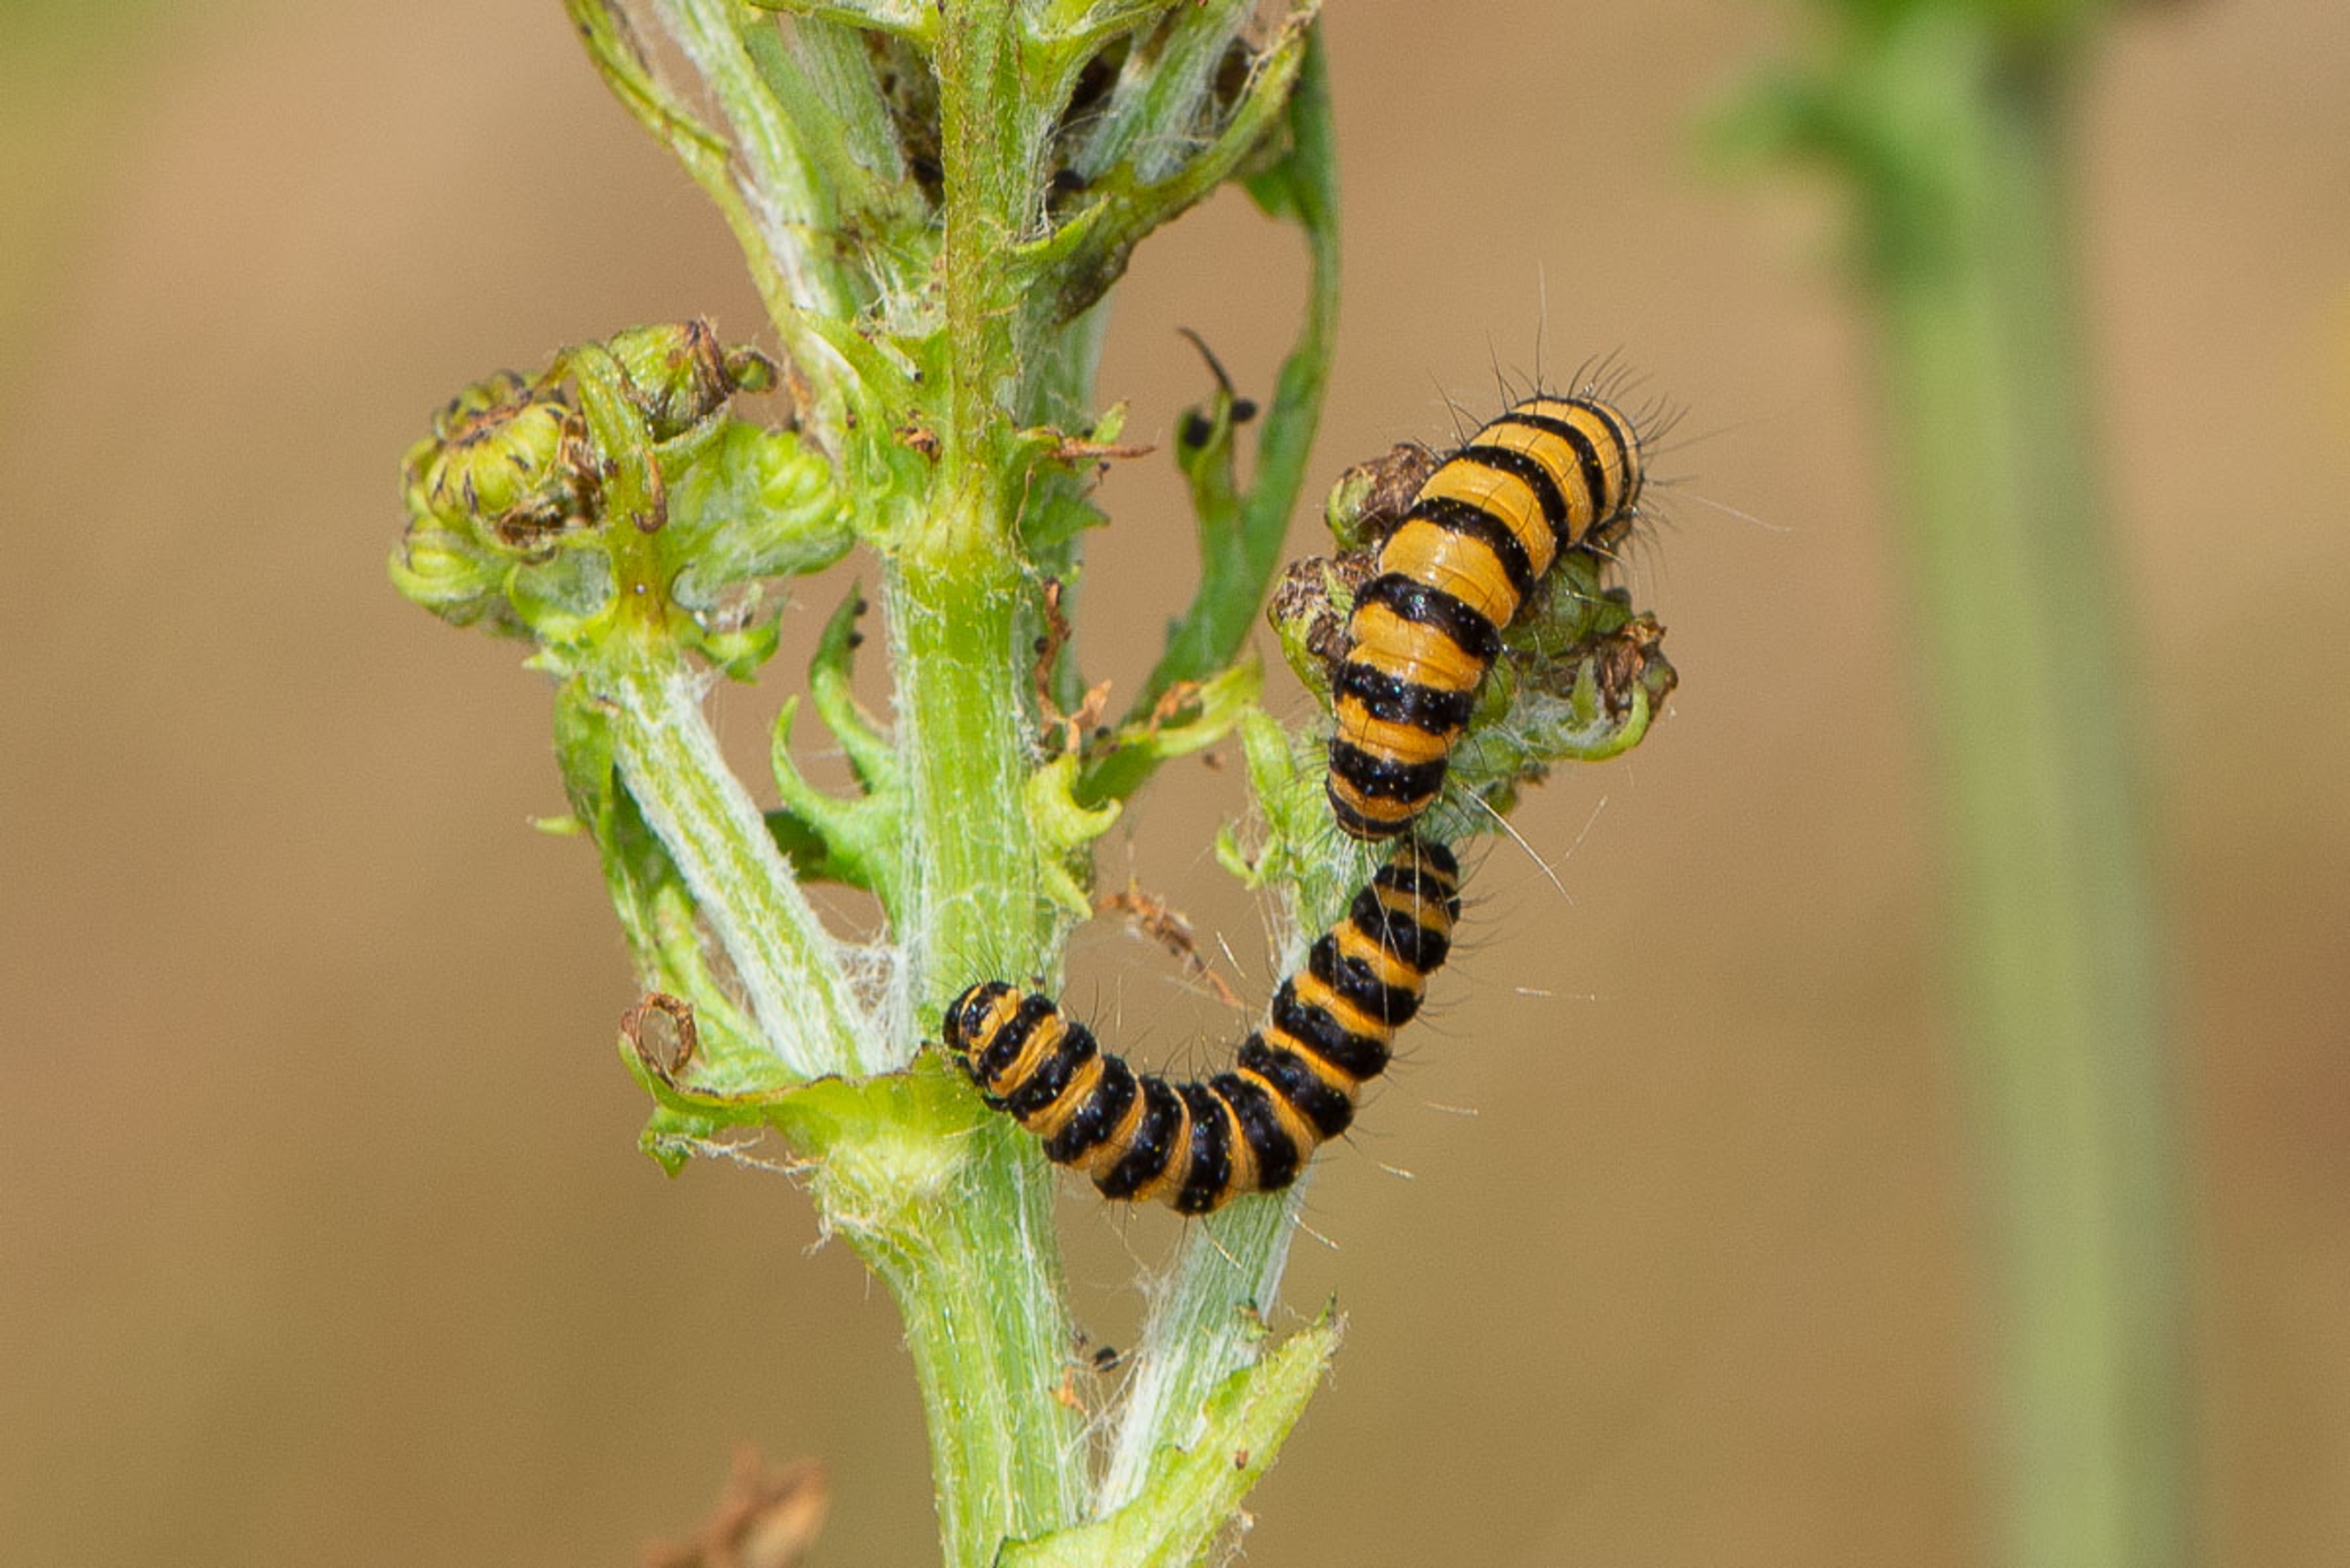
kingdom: Animalia
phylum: Arthropoda
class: Insecta
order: Lepidoptera
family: Erebidae
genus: Tyria
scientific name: Tyria jacobaeae
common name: Blodplet
